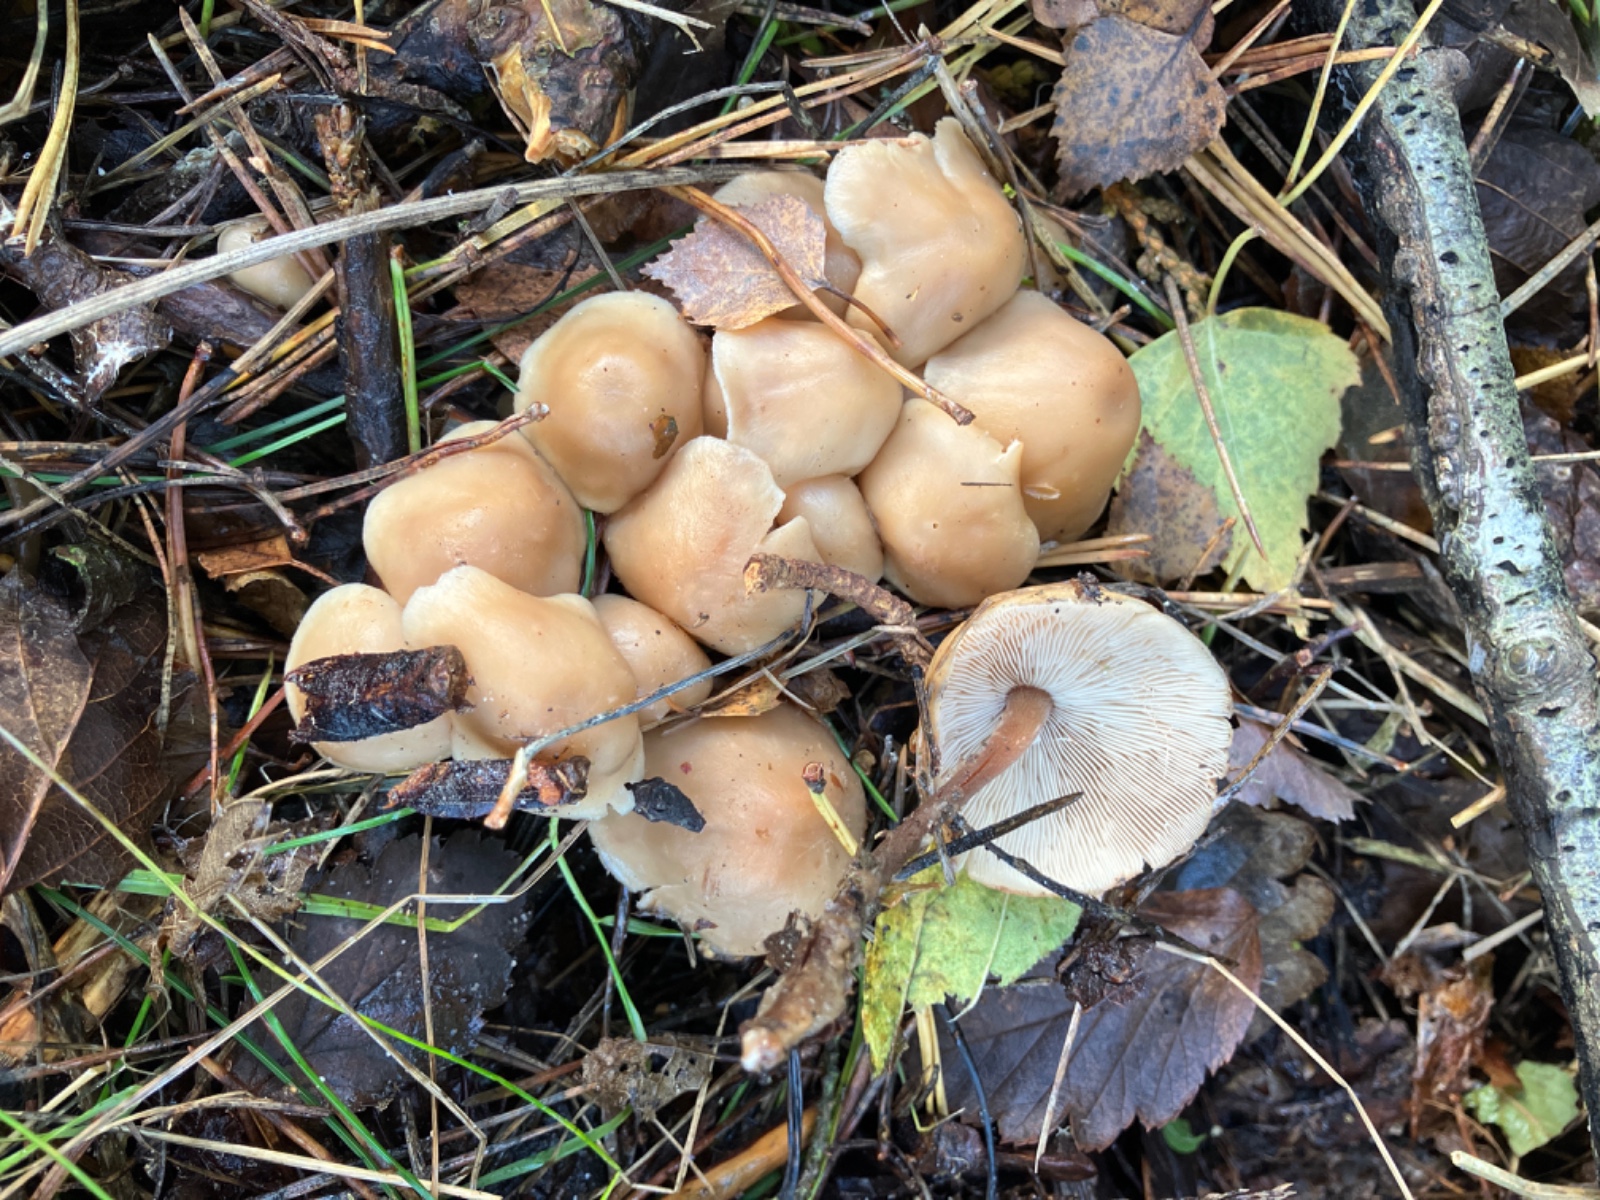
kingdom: Fungi
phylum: Basidiomycota
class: Agaricomycetes
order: Agaricales
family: Omphalotaceae
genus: Collybiopsis
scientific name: Collybiopsis confluens
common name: knippe-fladhat
